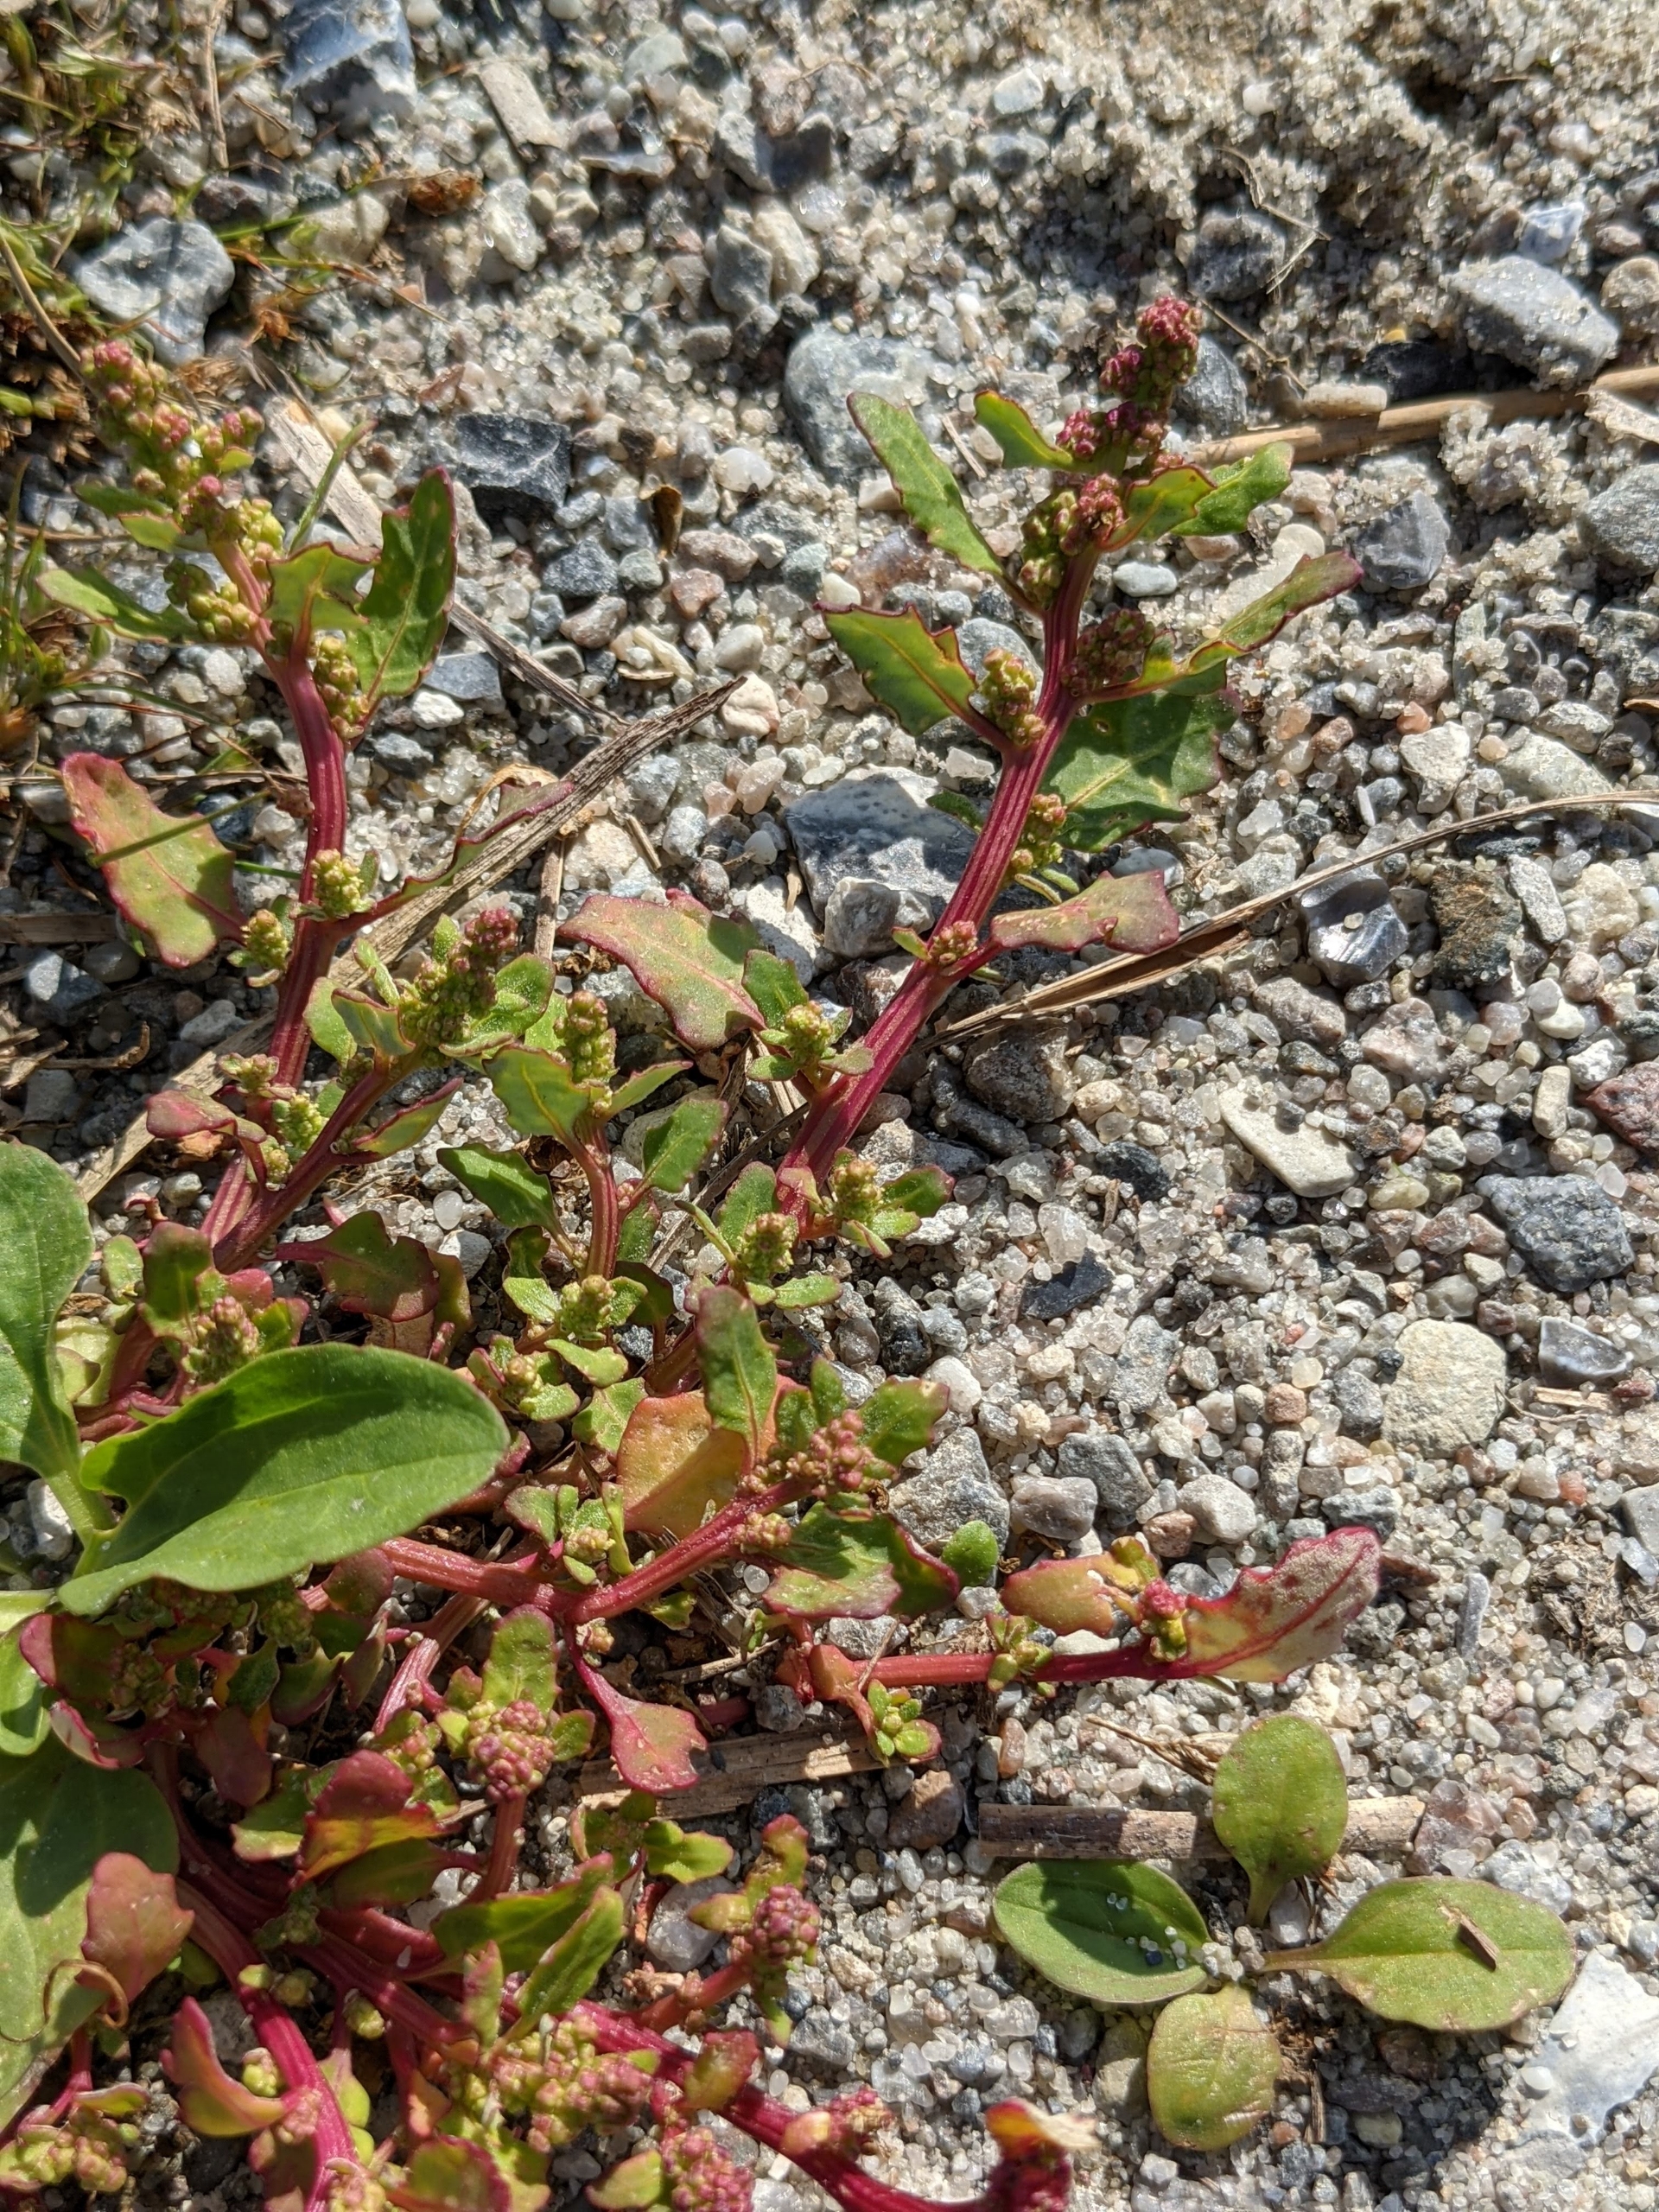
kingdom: Plantae
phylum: Tracheophyta
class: Magnoliopsida
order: Caryophyllales
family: Amaranthaceae
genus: Oxybasis
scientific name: Oxybasis glauca
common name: Blågrøn gåsefod
